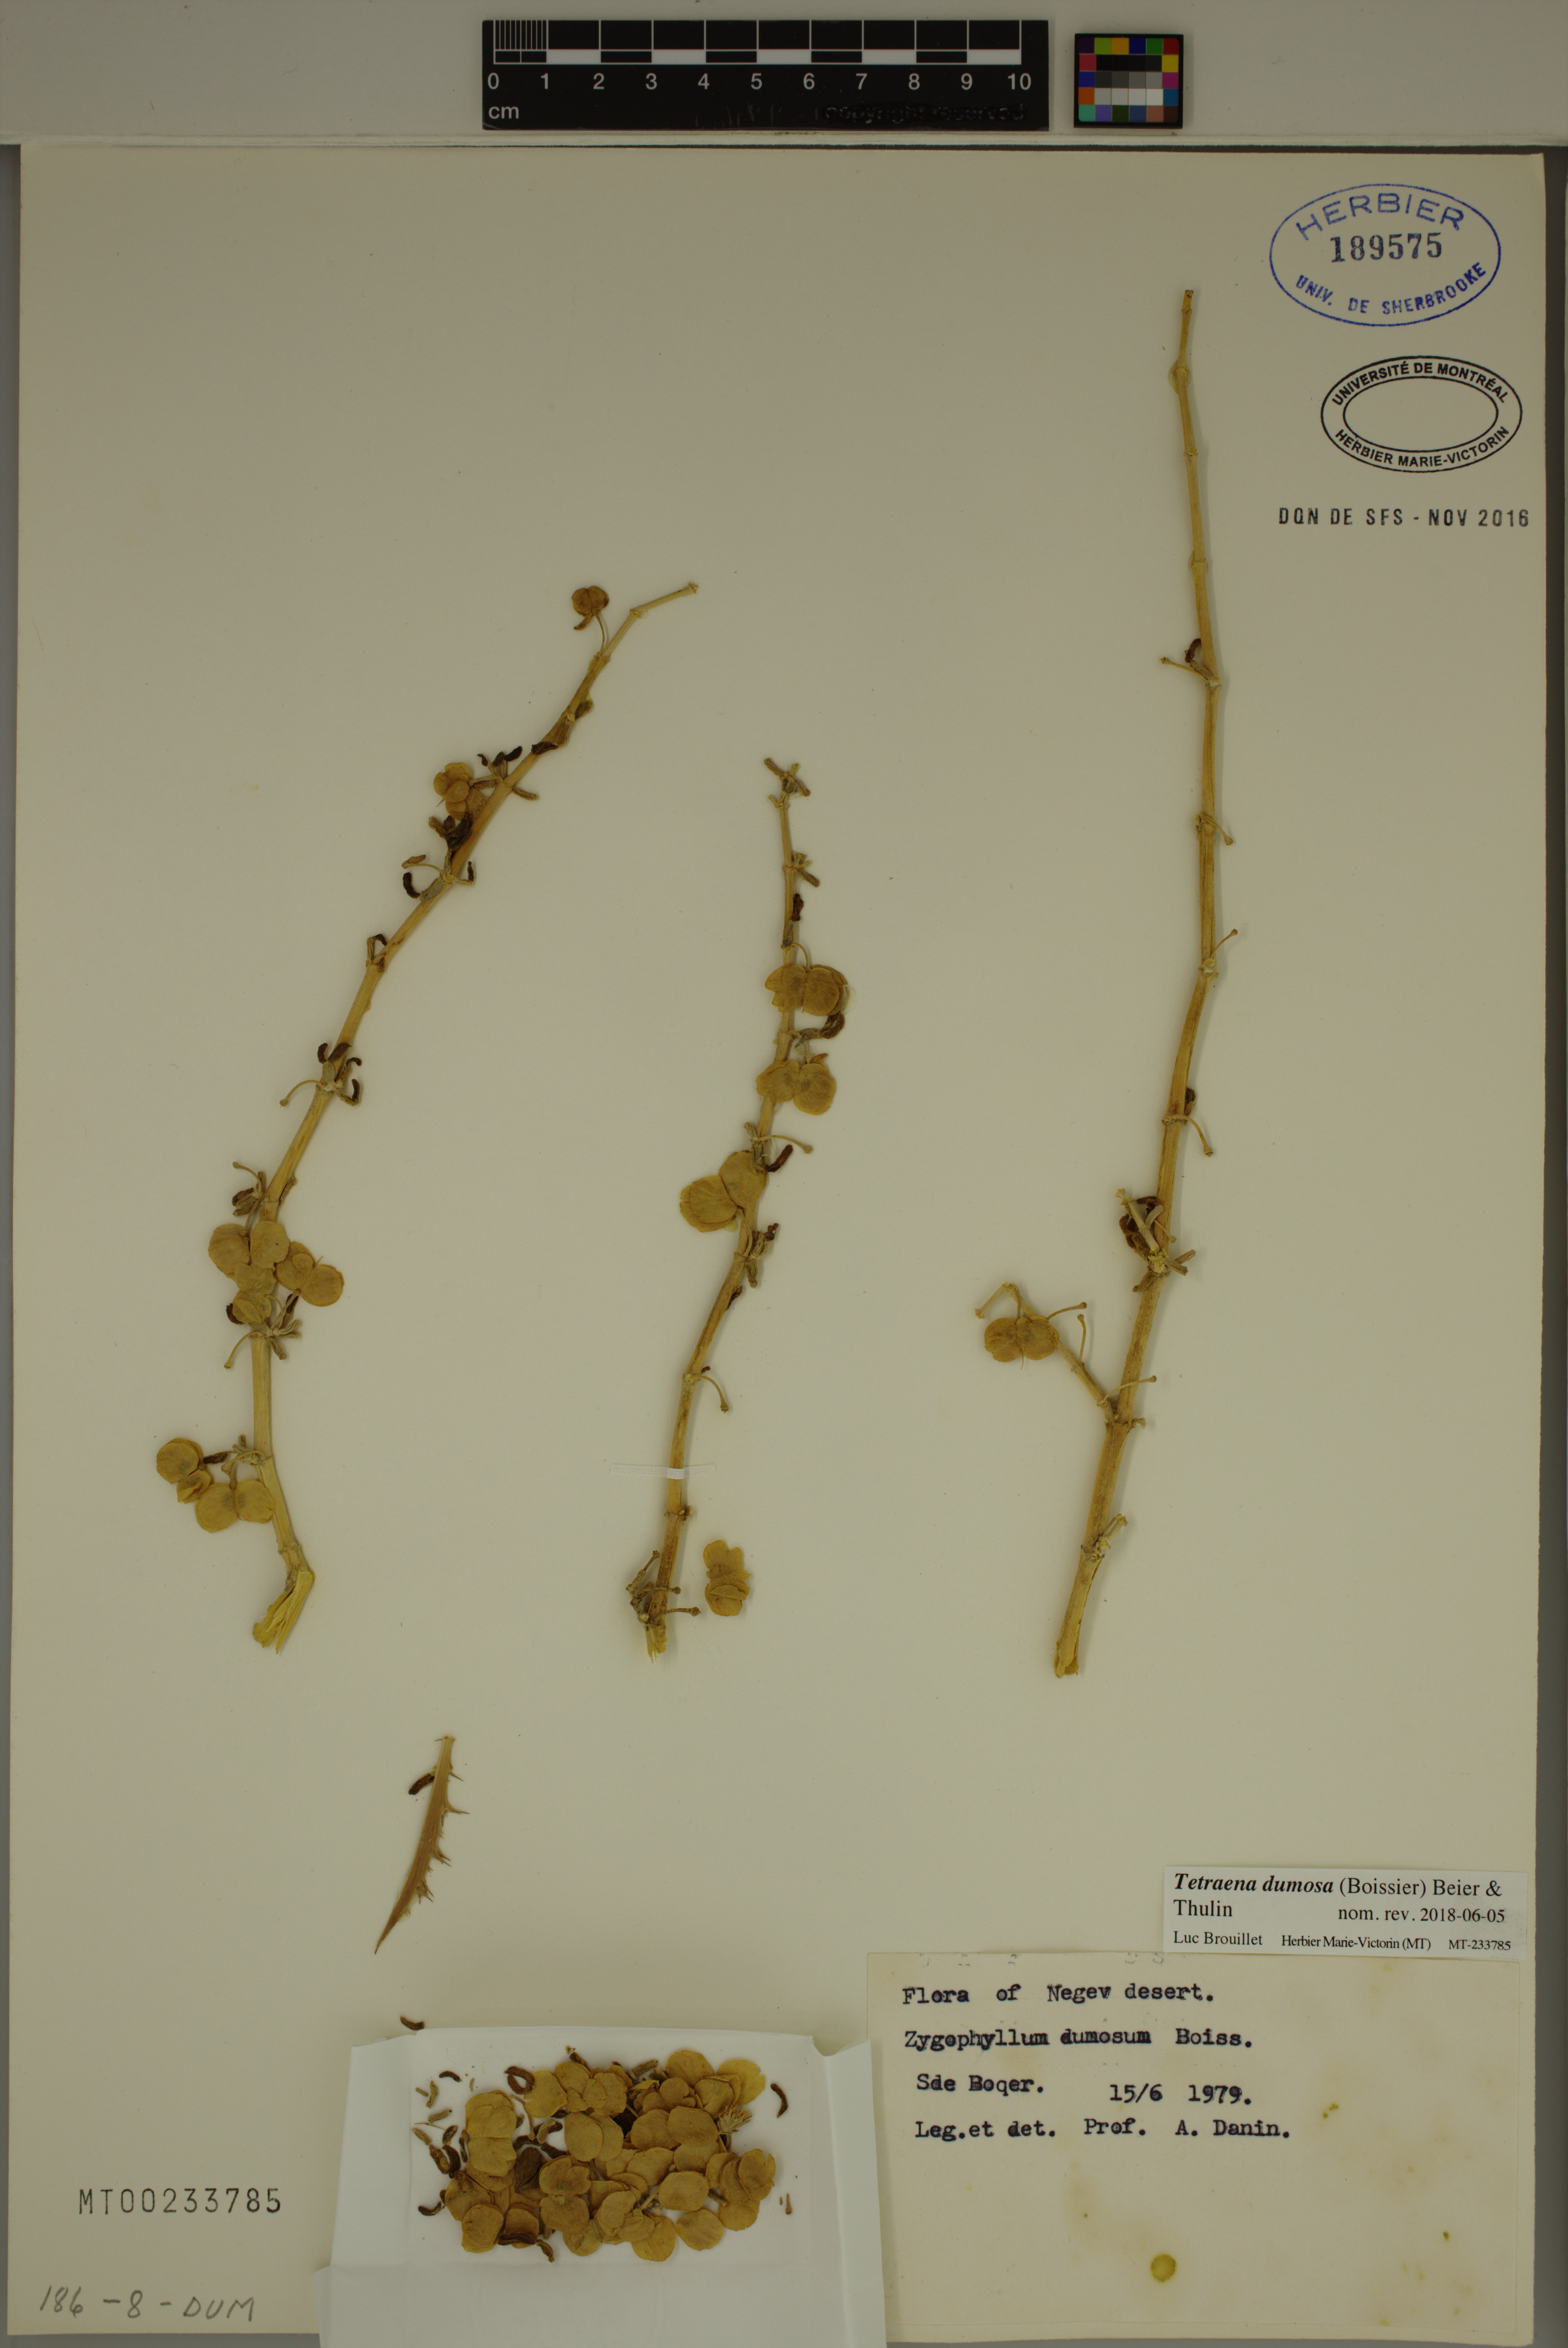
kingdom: Plantae
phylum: Tracheophyta
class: Magnoliopsida
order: Zygophyllales
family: Zygophyllaceae
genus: Tetraena
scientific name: Tetraena dumosa
